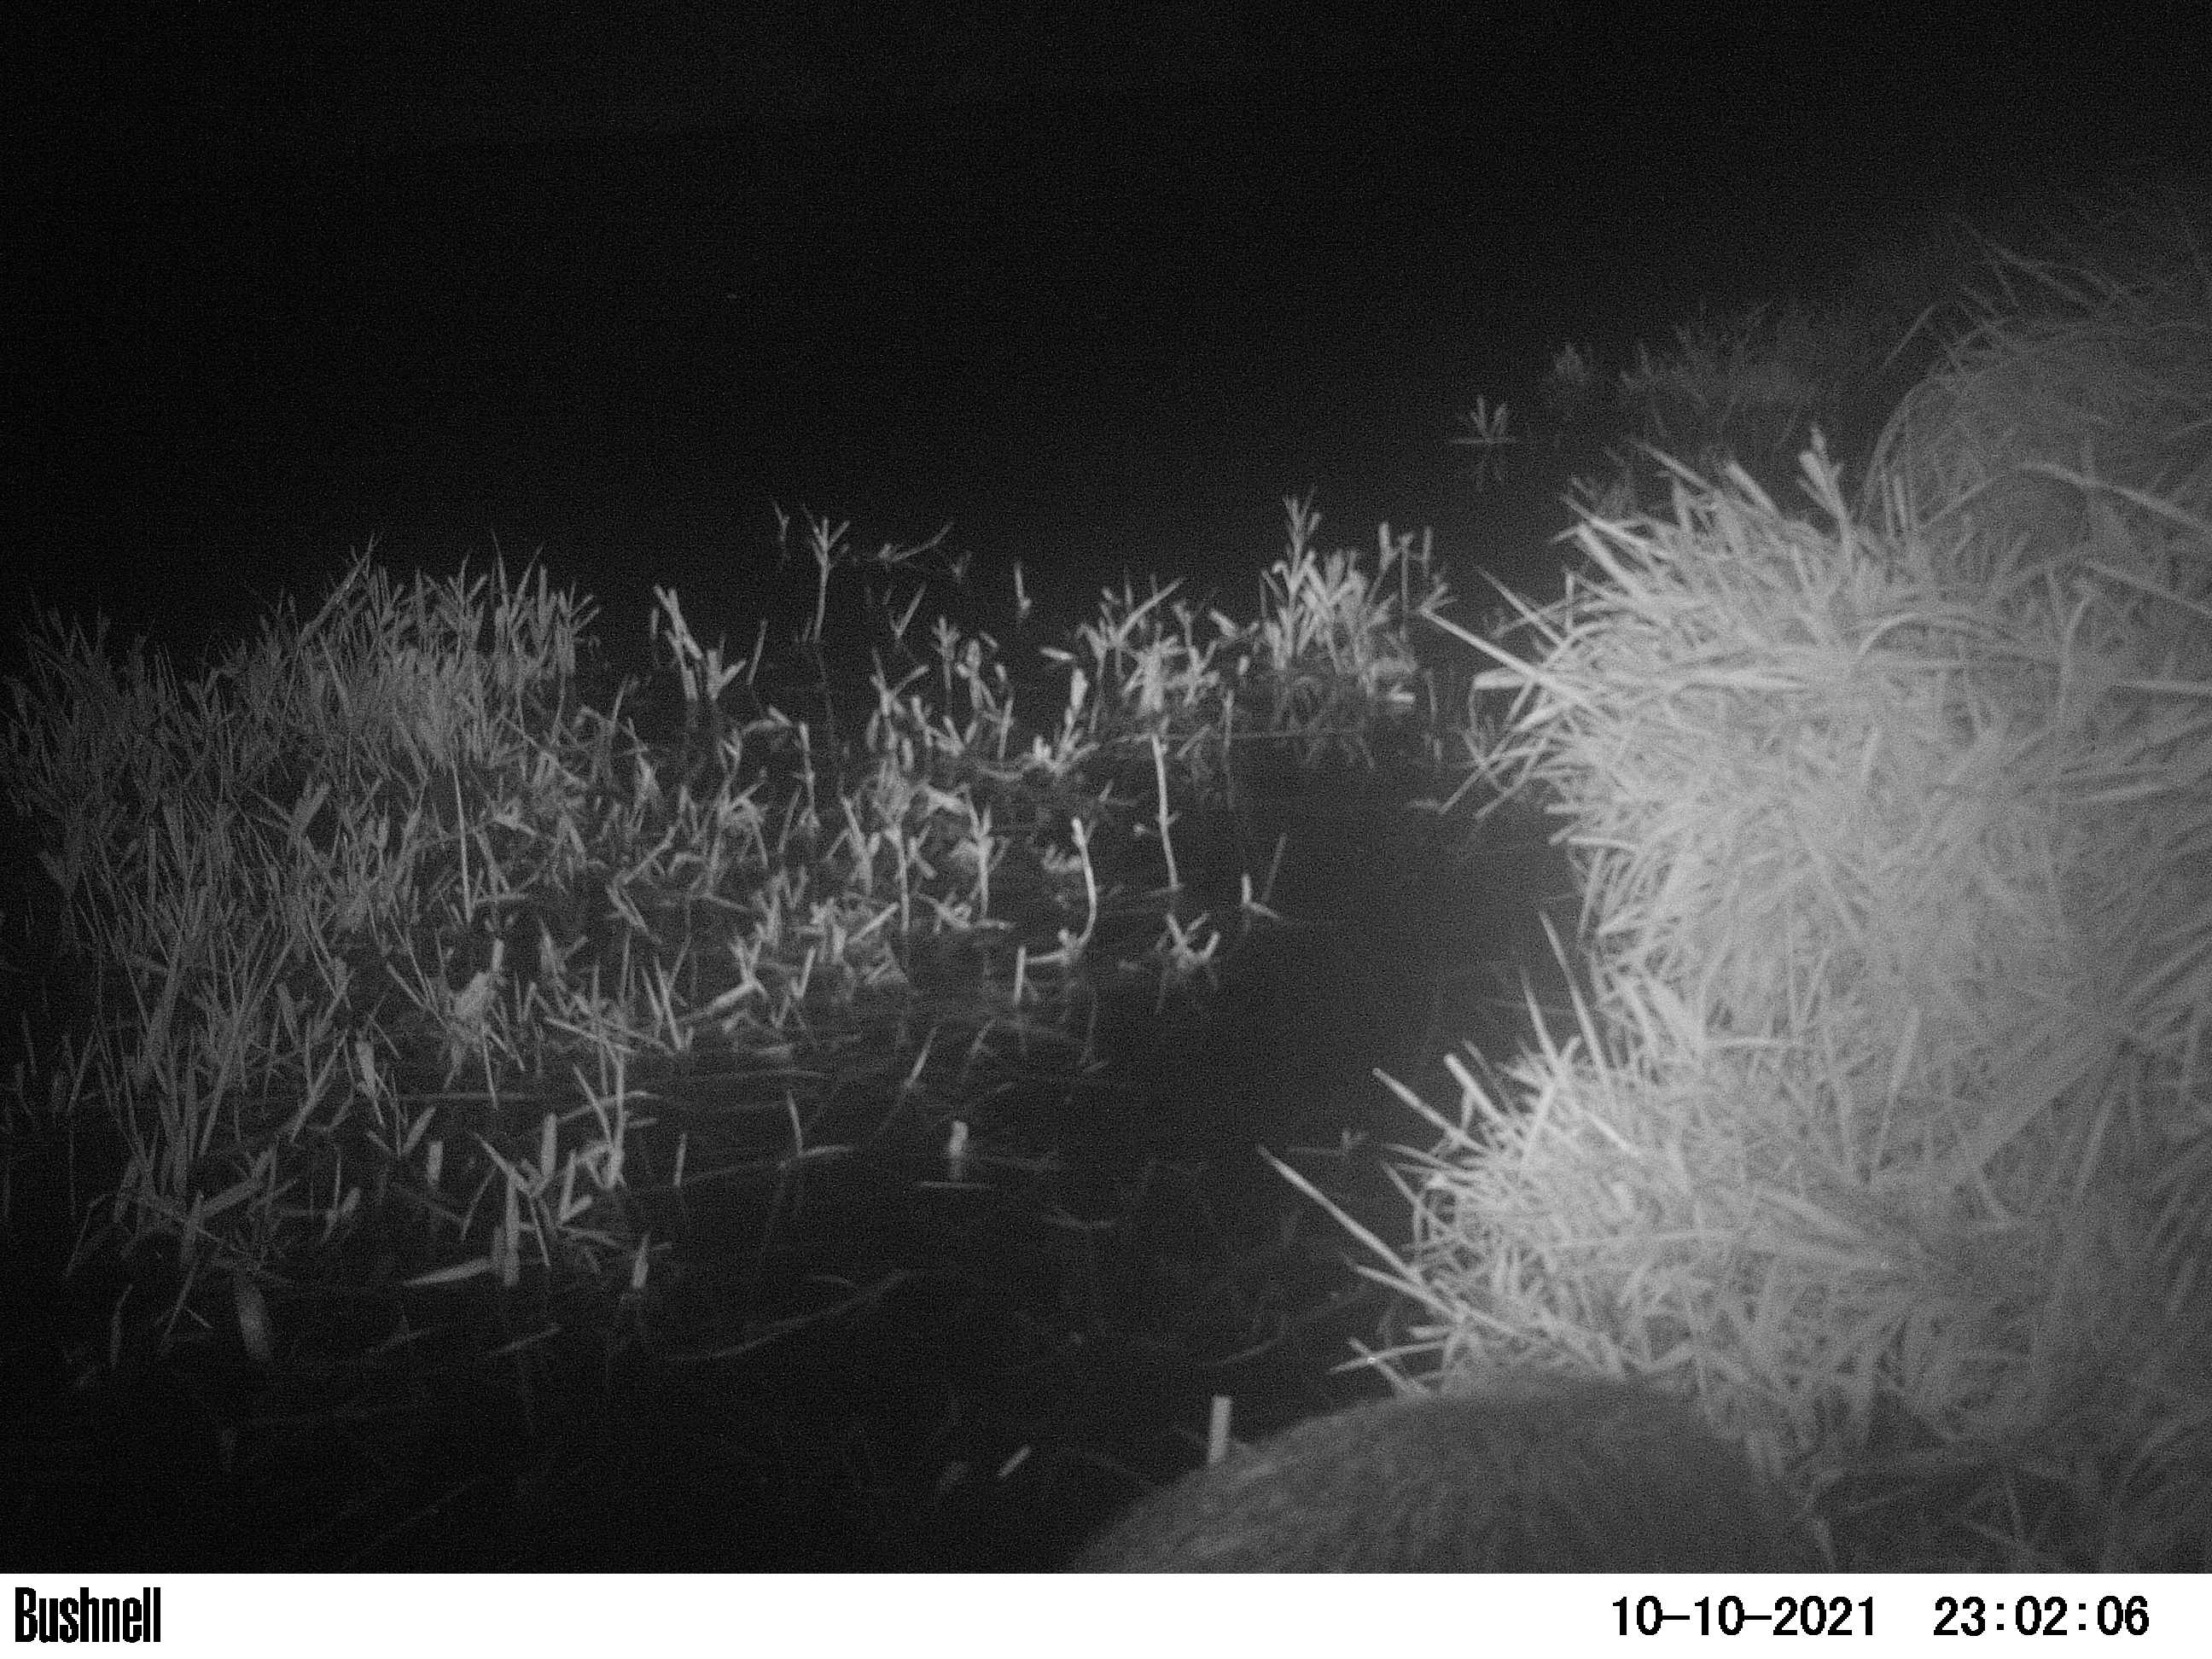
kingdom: Animalia
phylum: Chordata
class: Mammalia
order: Rodentia
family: Myocastoridae
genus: Myocastor
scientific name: Myocastor coypus
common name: Coypu
